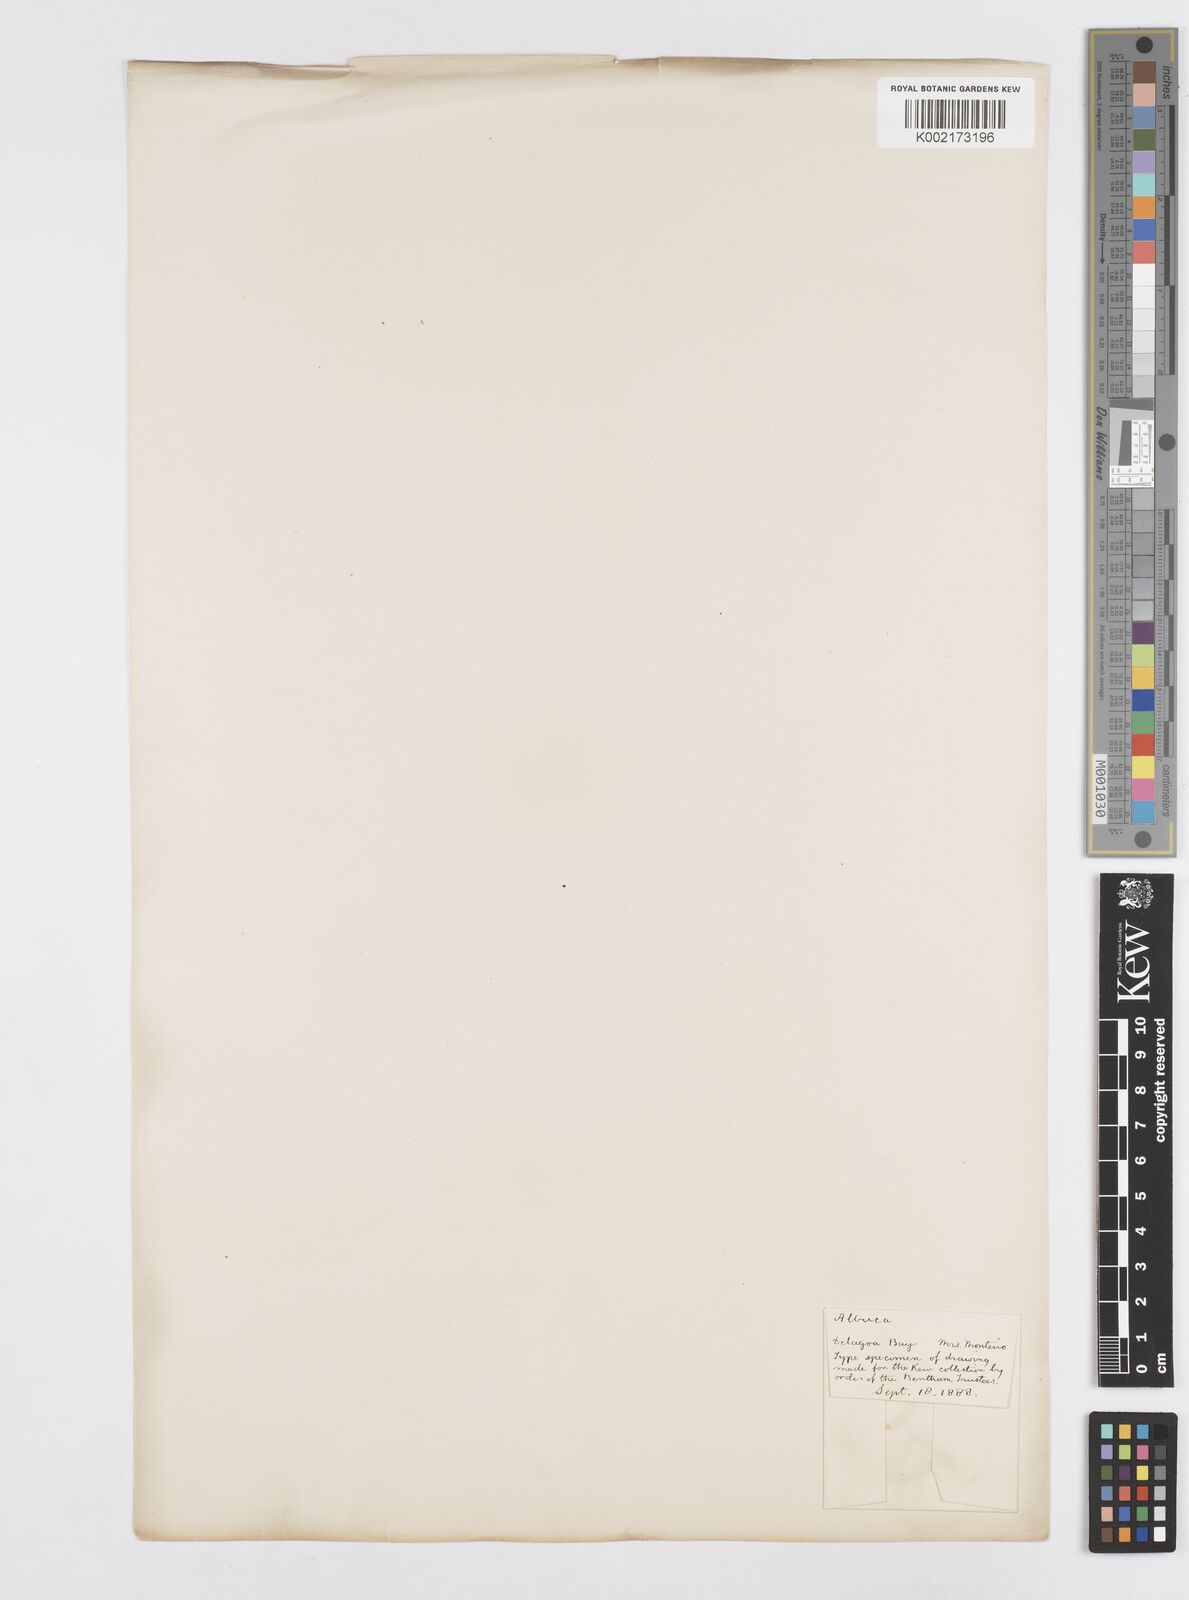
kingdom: Plantae
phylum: Tracheophyta
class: Liliopsida
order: Asparagales
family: Asparagaceae
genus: Albuca
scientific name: Albuca
